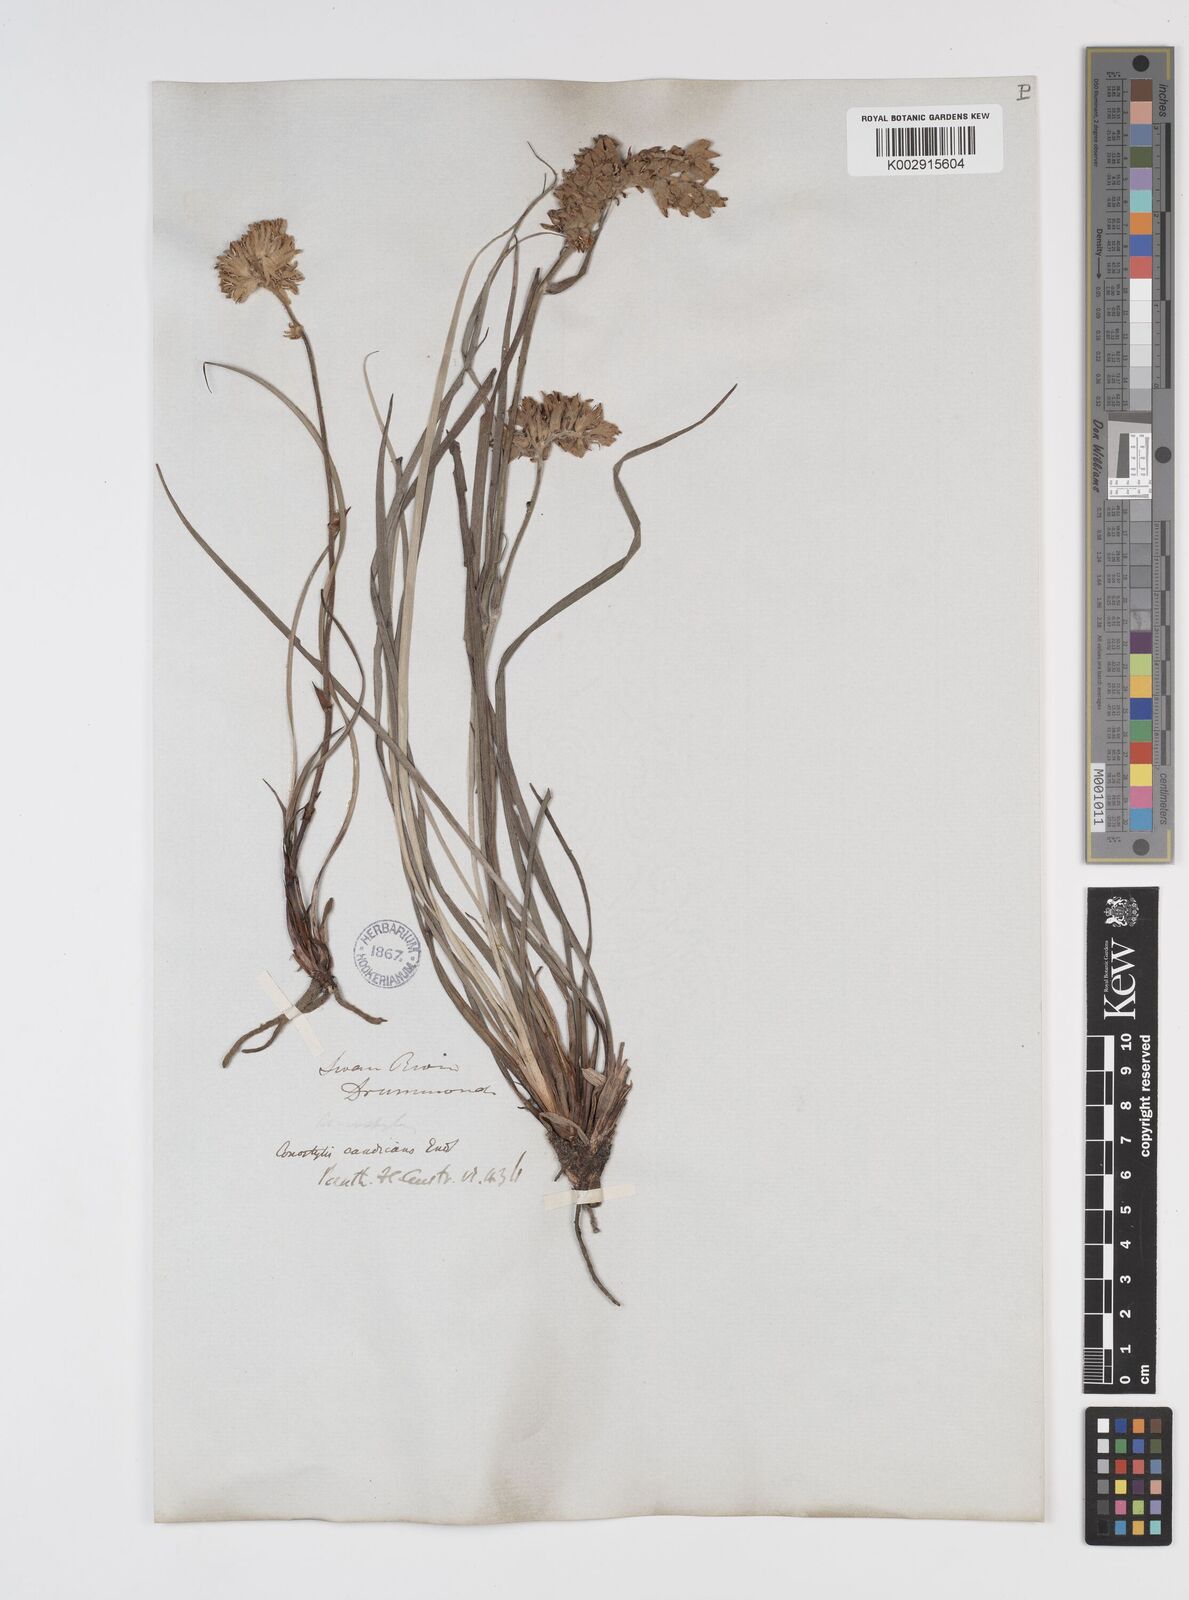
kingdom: Plantae
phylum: Tracheophyta
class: Liliopsida
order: Commelinales
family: Haemodoraceae
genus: Conostylis
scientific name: Conostylis candicans
